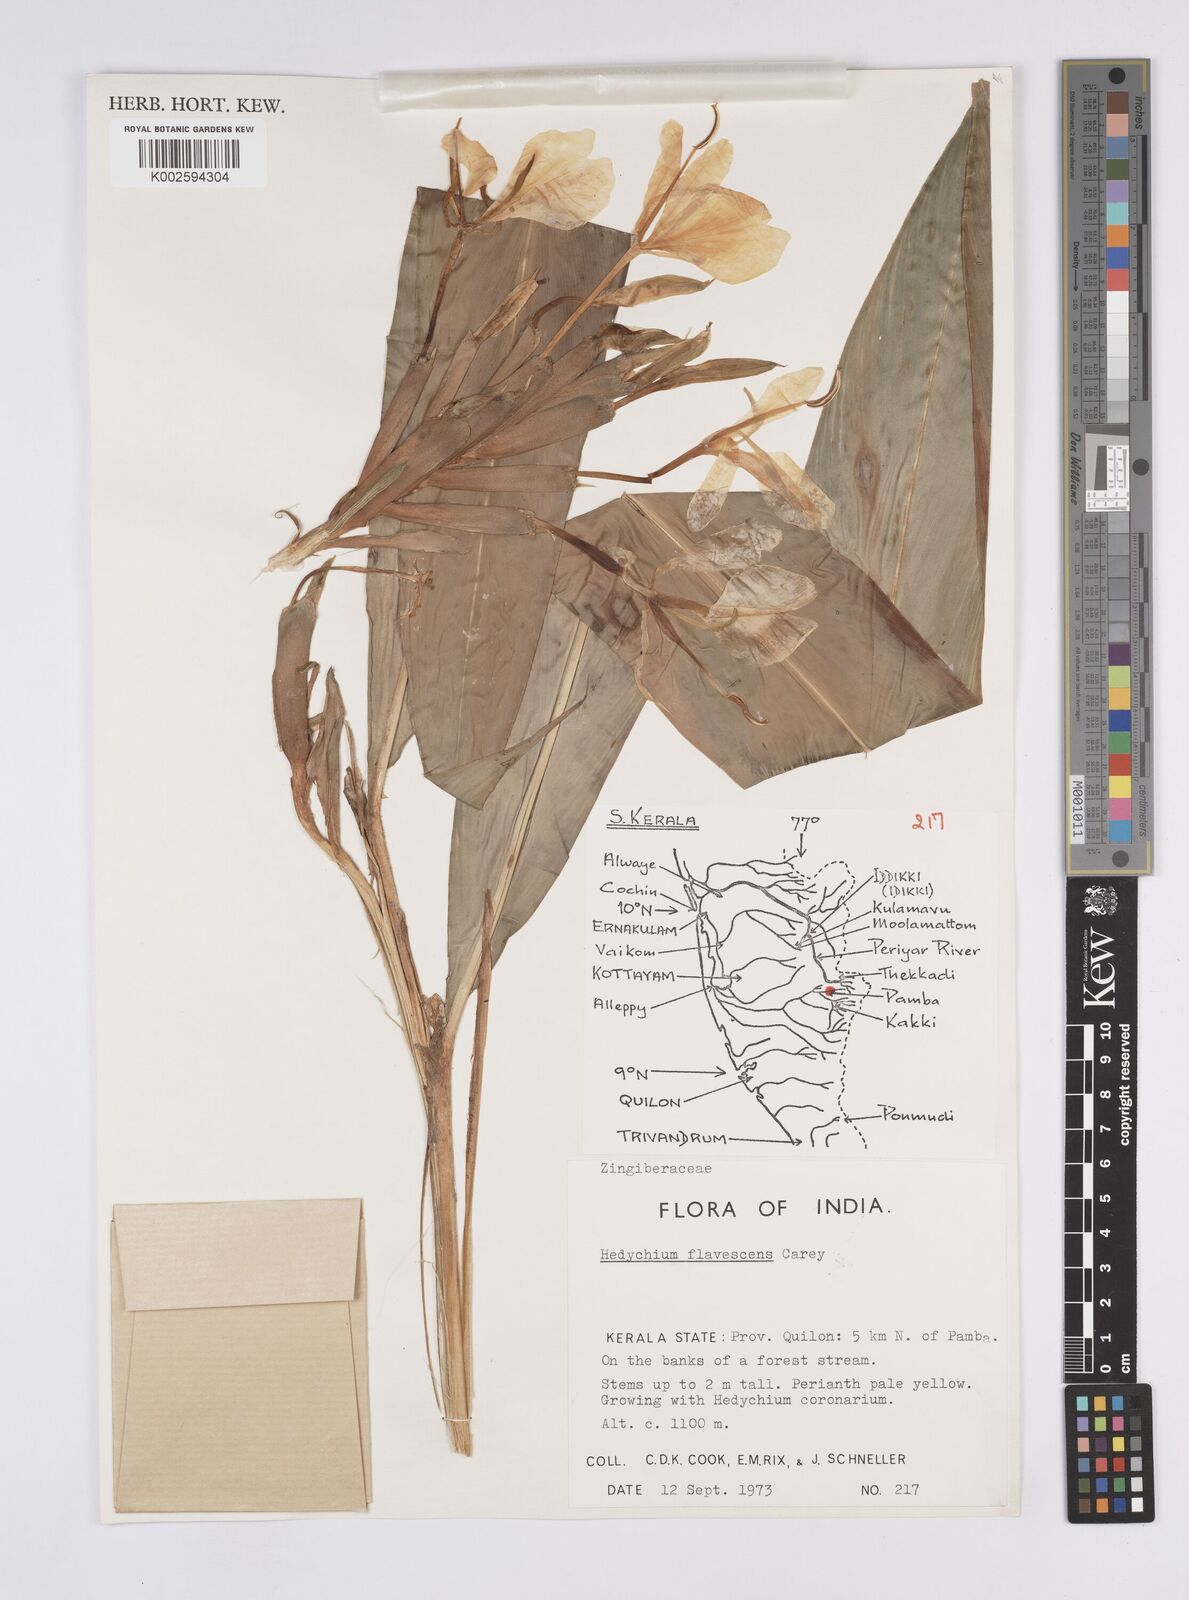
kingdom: Plantae
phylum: Tracheophyta
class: Liliopsida
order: Zingiberales
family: Zingiberaceae
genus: Hedychium
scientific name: Hedychium flavescens
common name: Yellow ginger
